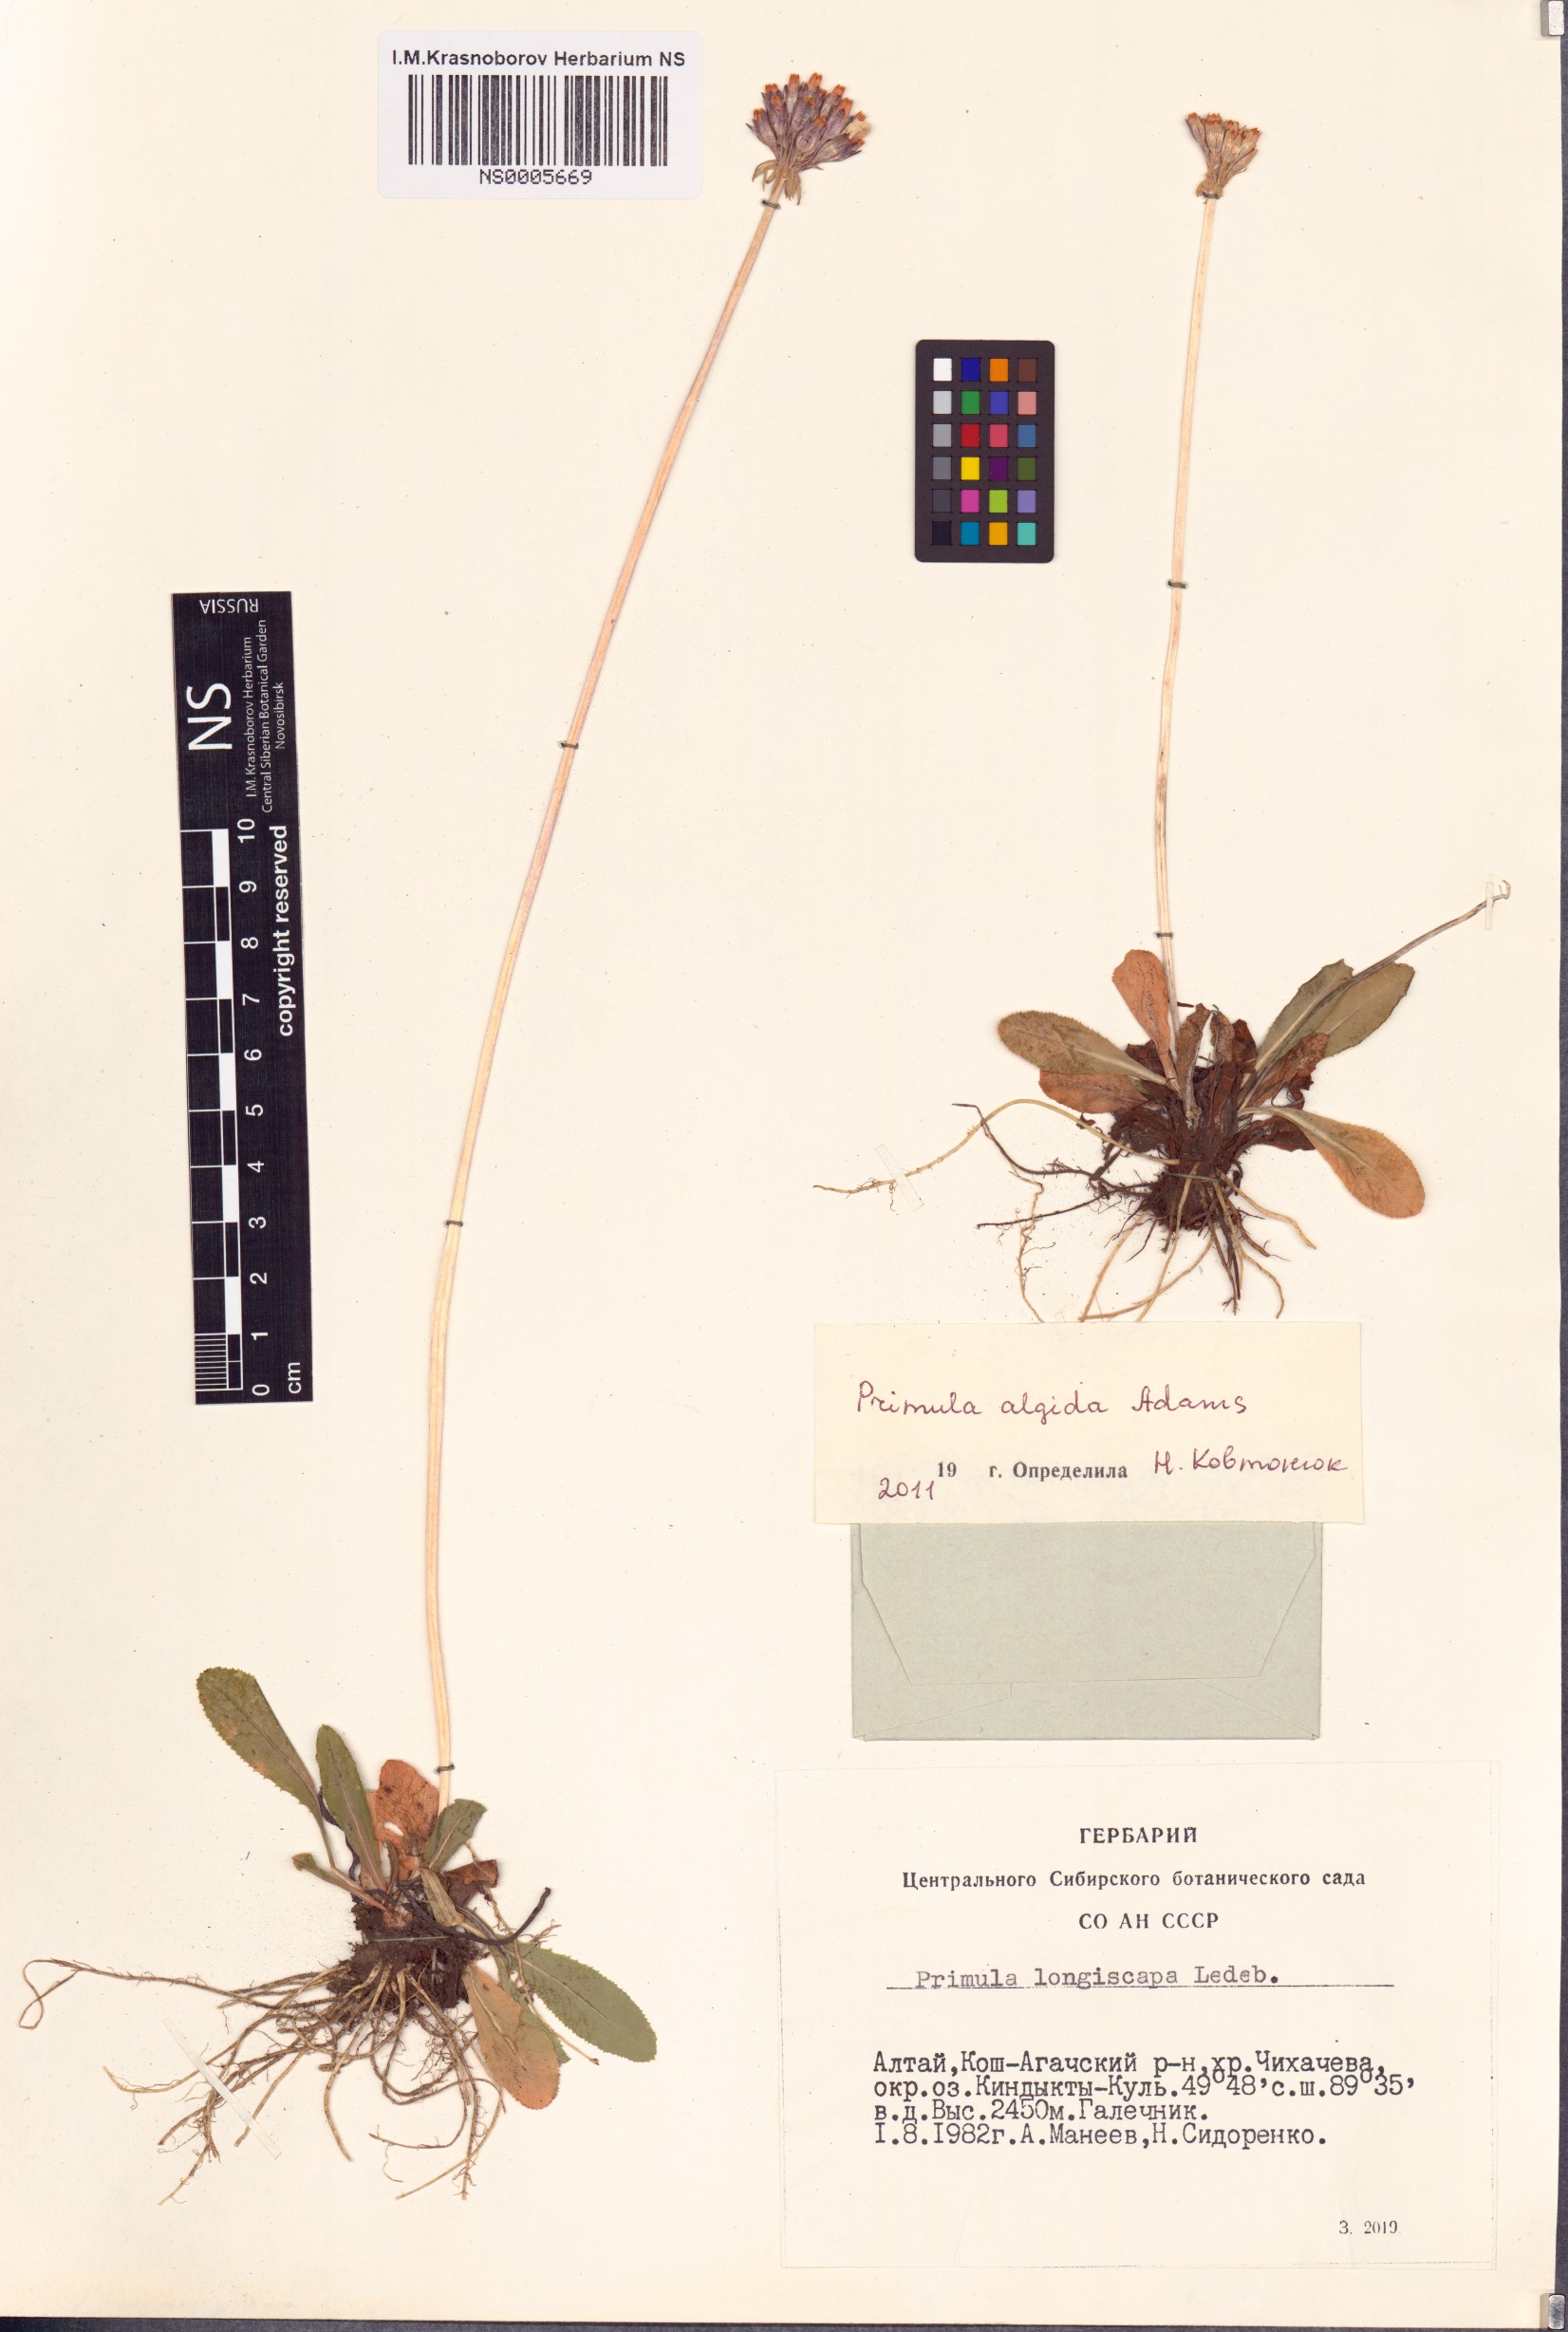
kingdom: Plantae
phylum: Tracheophyta
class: Magnoliopsida
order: Ericales
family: Primulaceae
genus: Primula
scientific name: Primula algida
